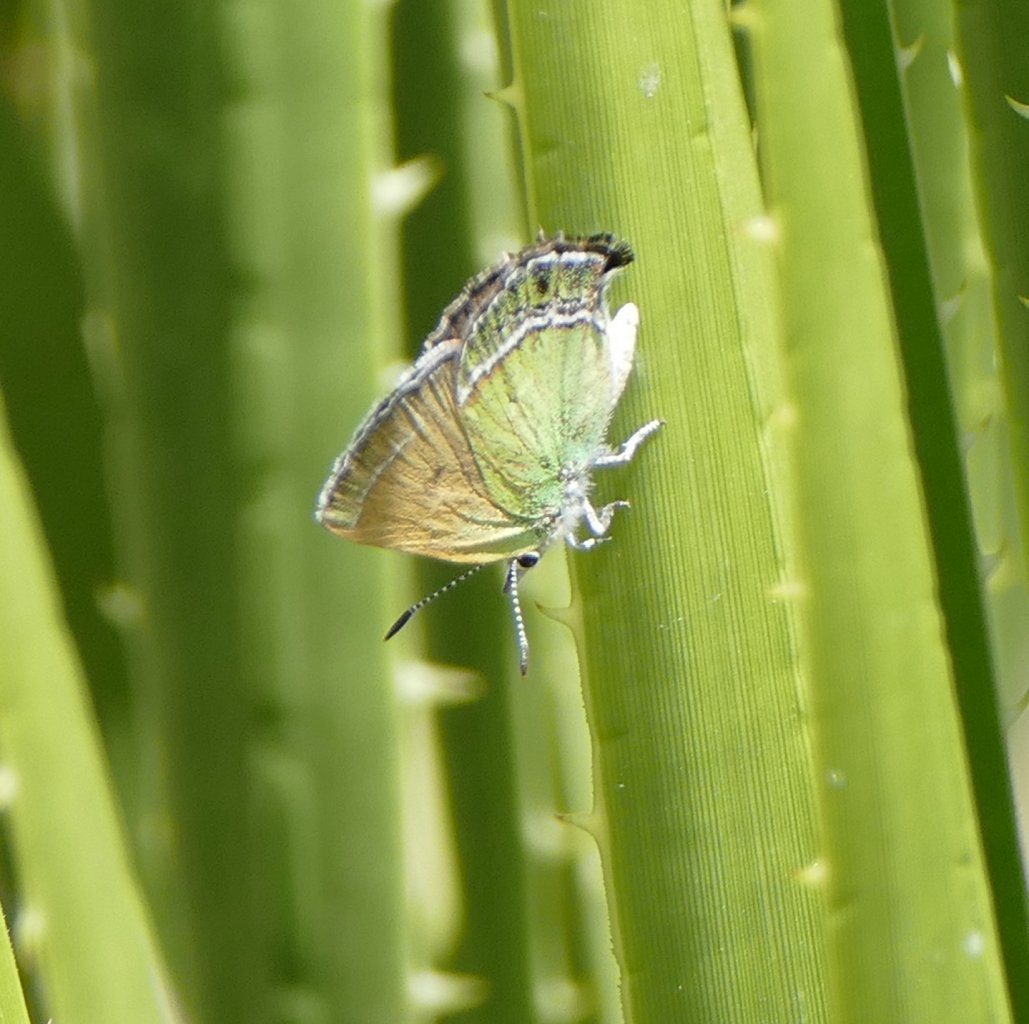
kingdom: Animalia
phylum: Arthropoda
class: Insecta
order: Lepidoptera
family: Lycaenidae
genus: Sandia
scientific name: Sandia mcfarlandi
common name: Sandia Hairstreak
